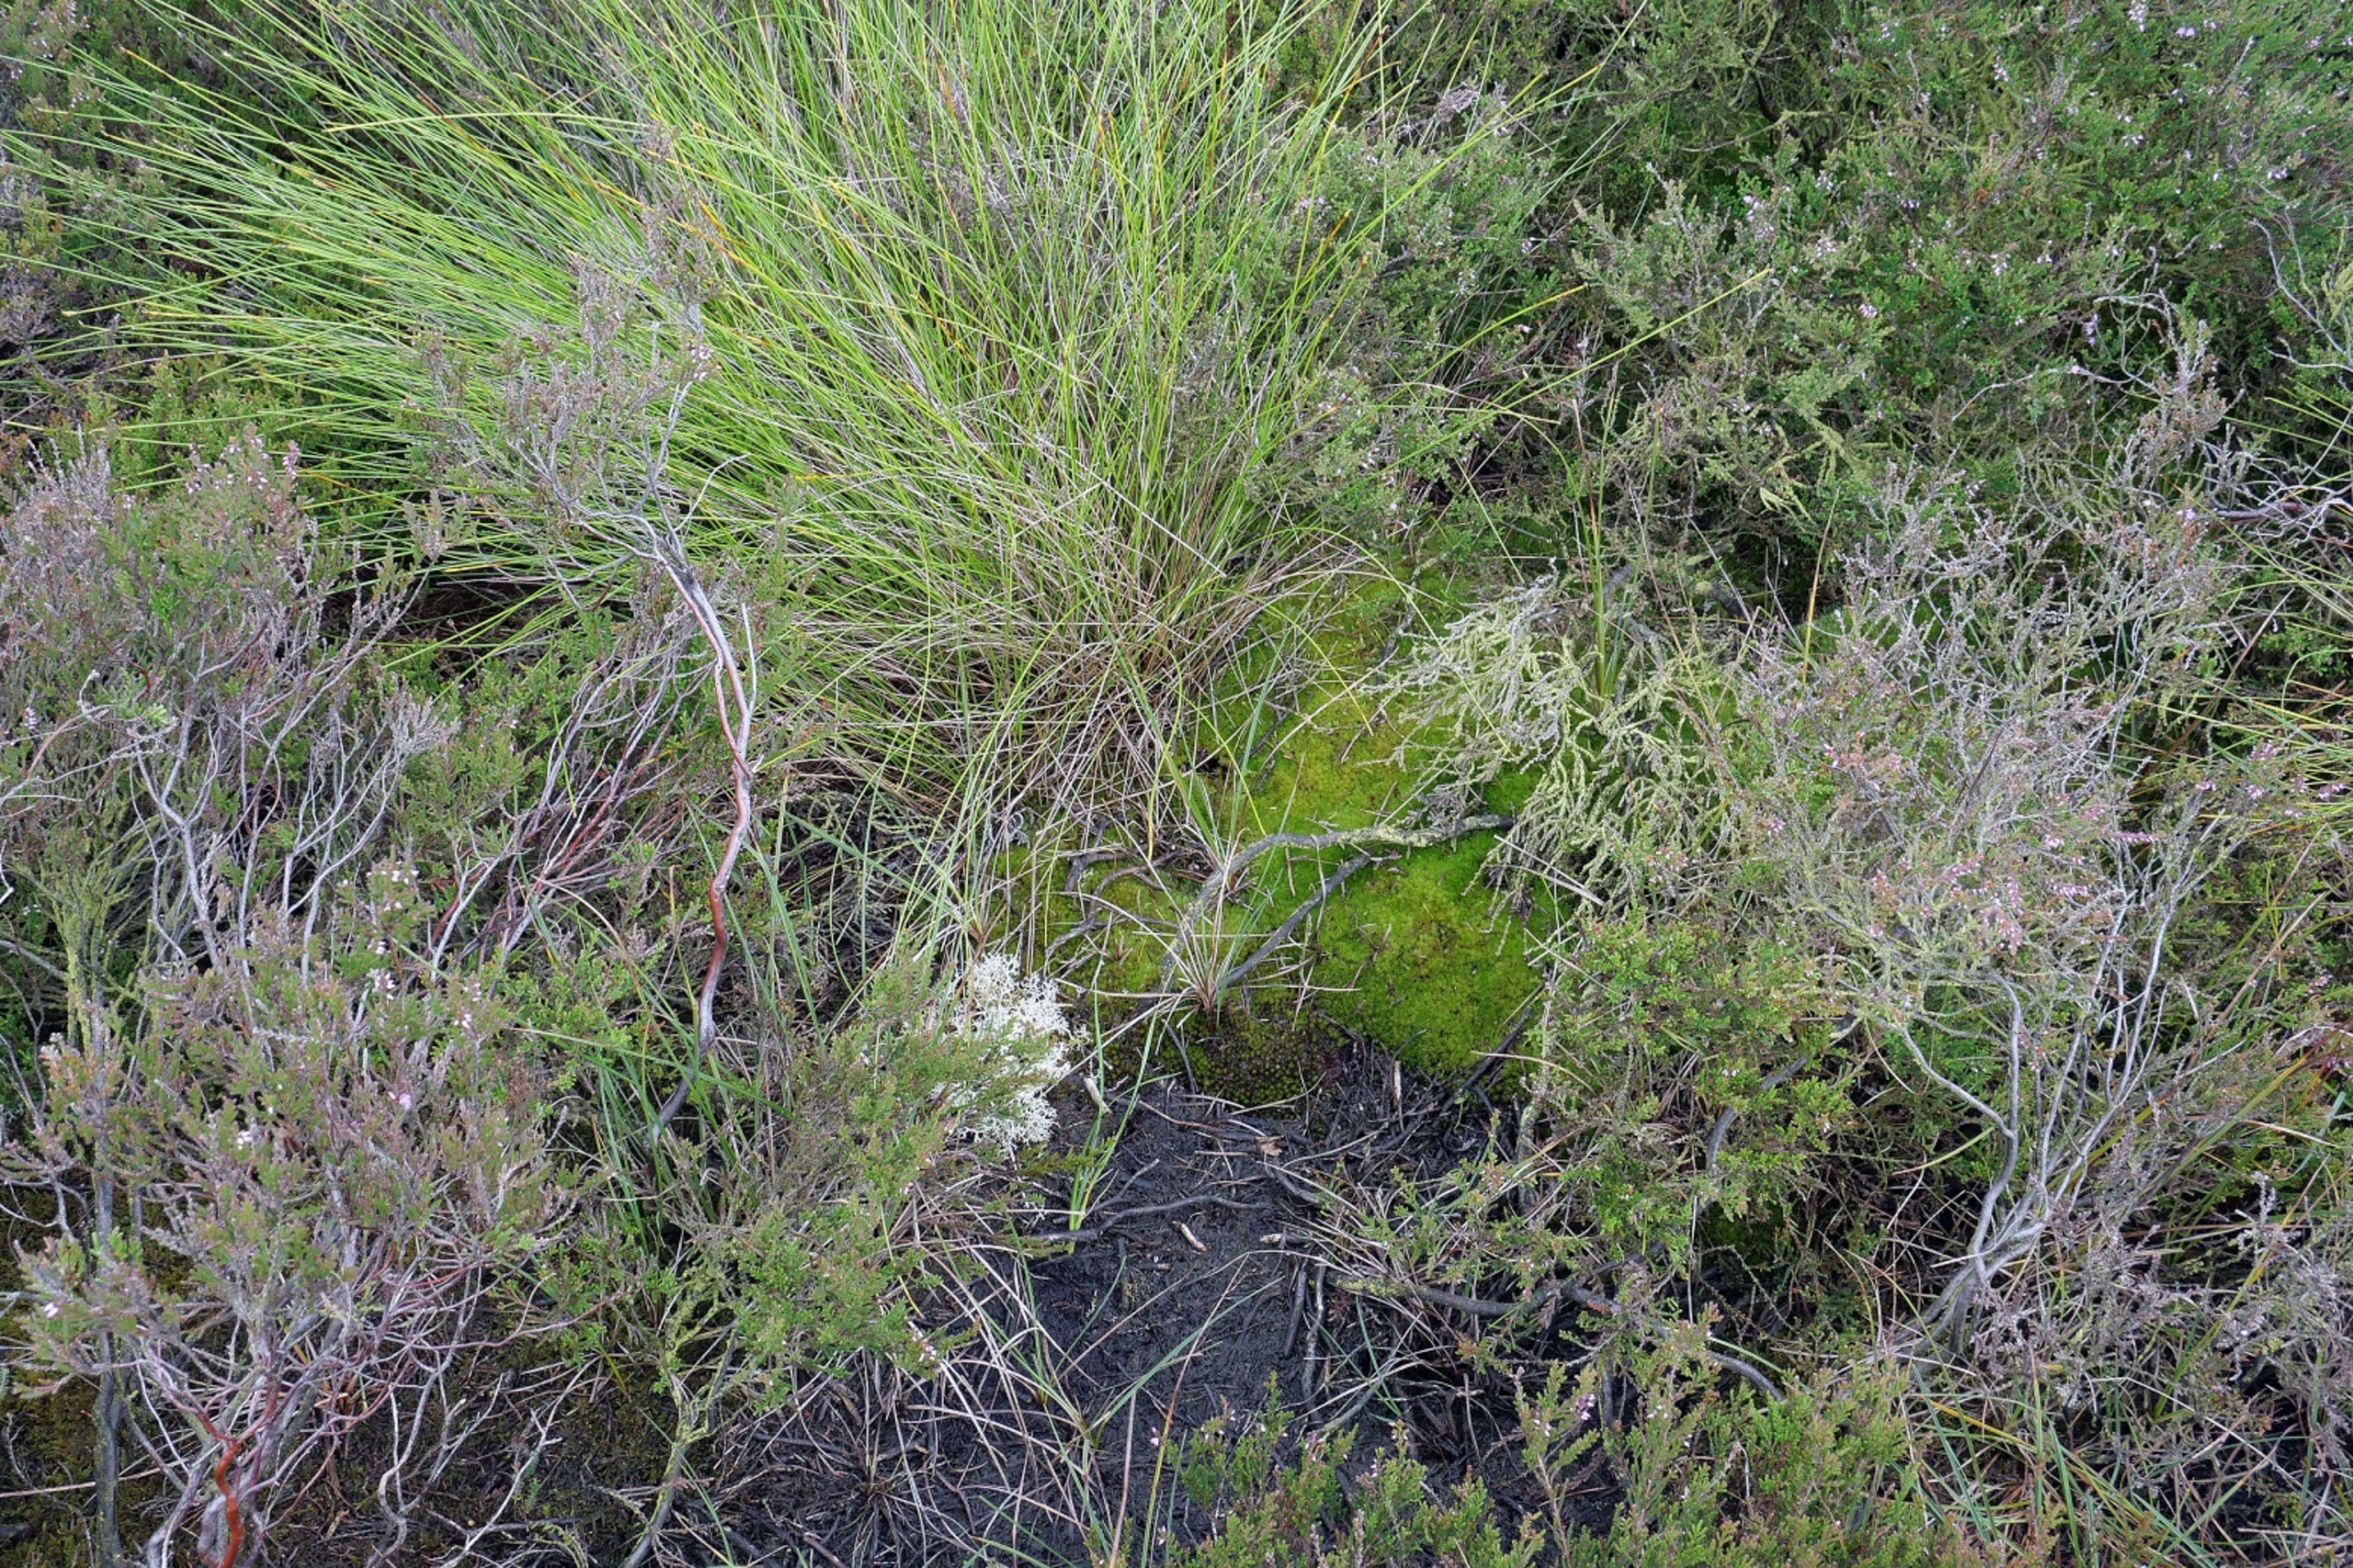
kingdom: Plantae
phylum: Bryophyta
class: Bryopsida
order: Dicranales
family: Leucobryaceae
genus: Leucobryum
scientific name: Leucobryum glaucum
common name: Almindelig hvidmos
